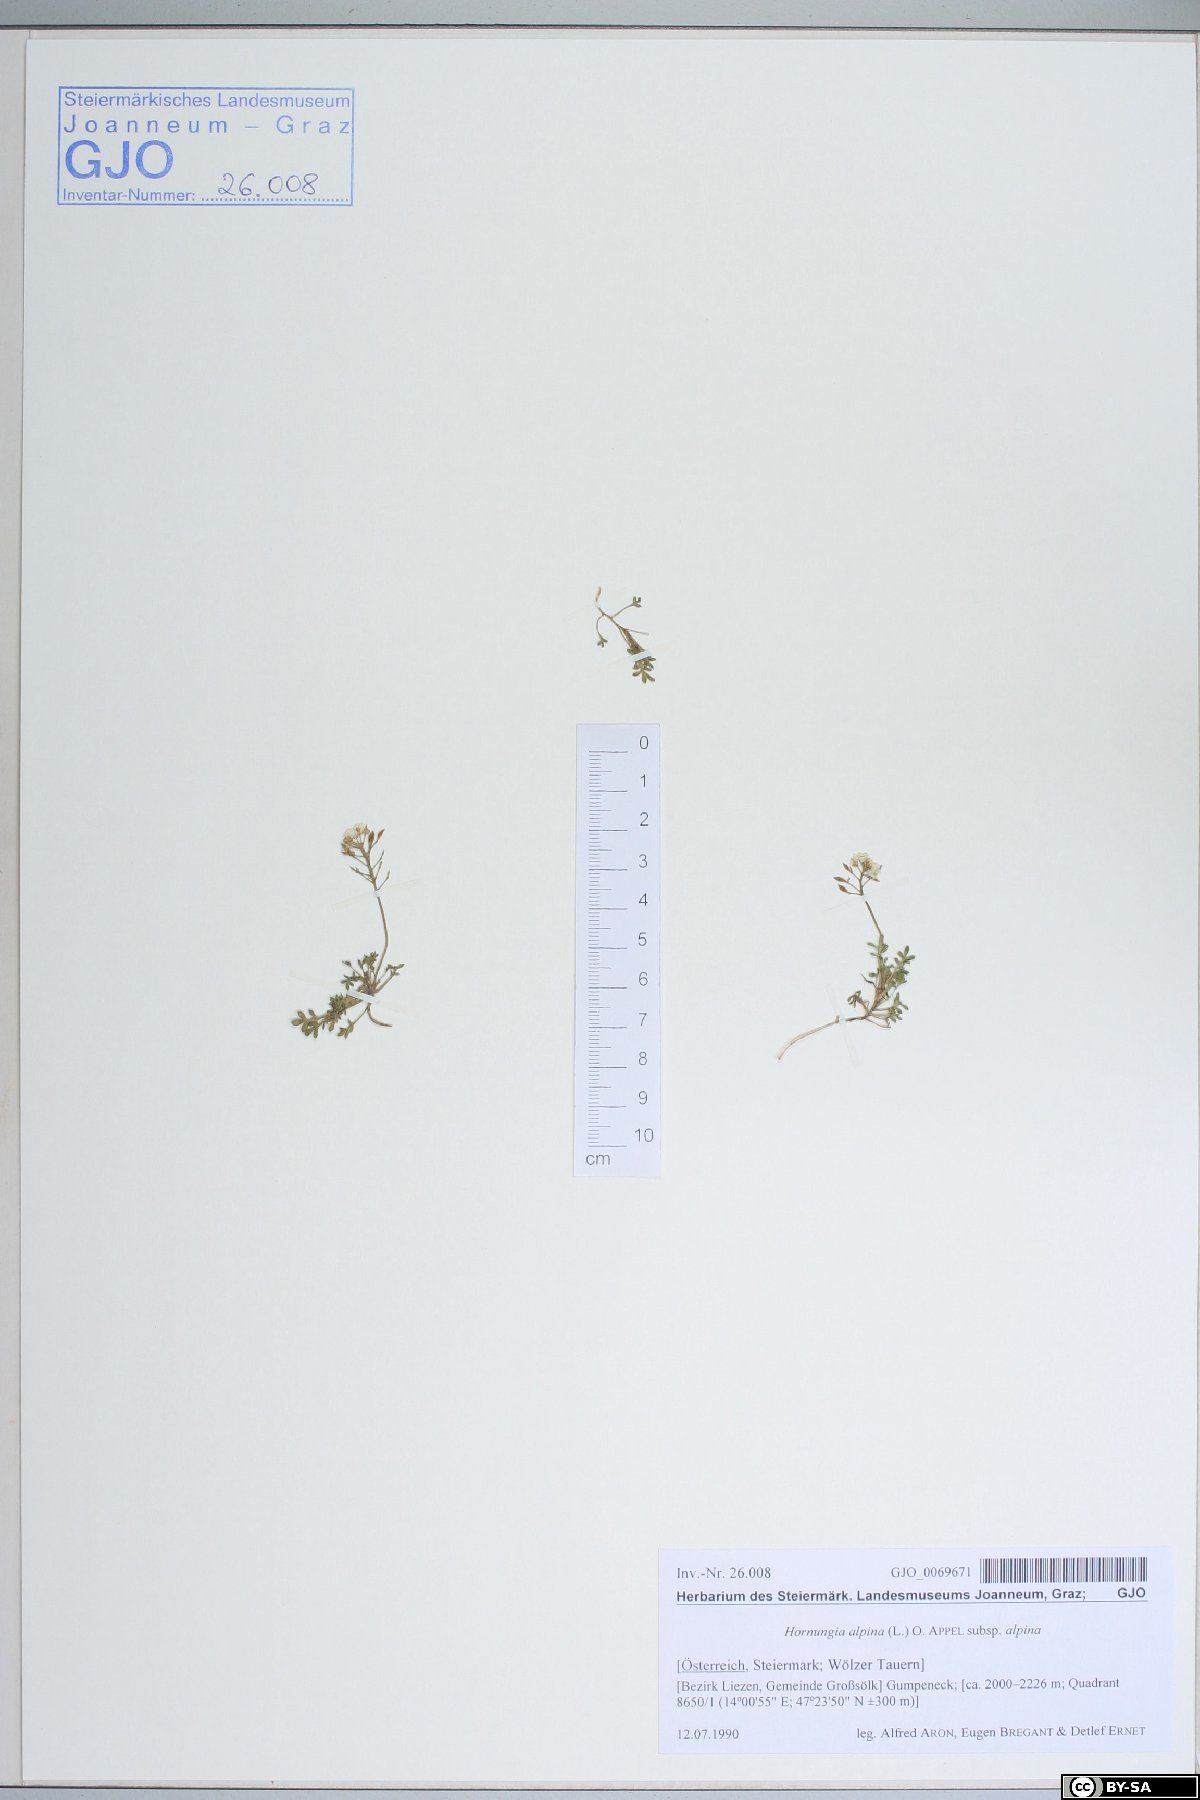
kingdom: Plantae
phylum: Tracheophyta
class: Magnoliopsida
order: Brassicales
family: Brassicaceae
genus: Hornungia
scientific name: Hornungia alpina
